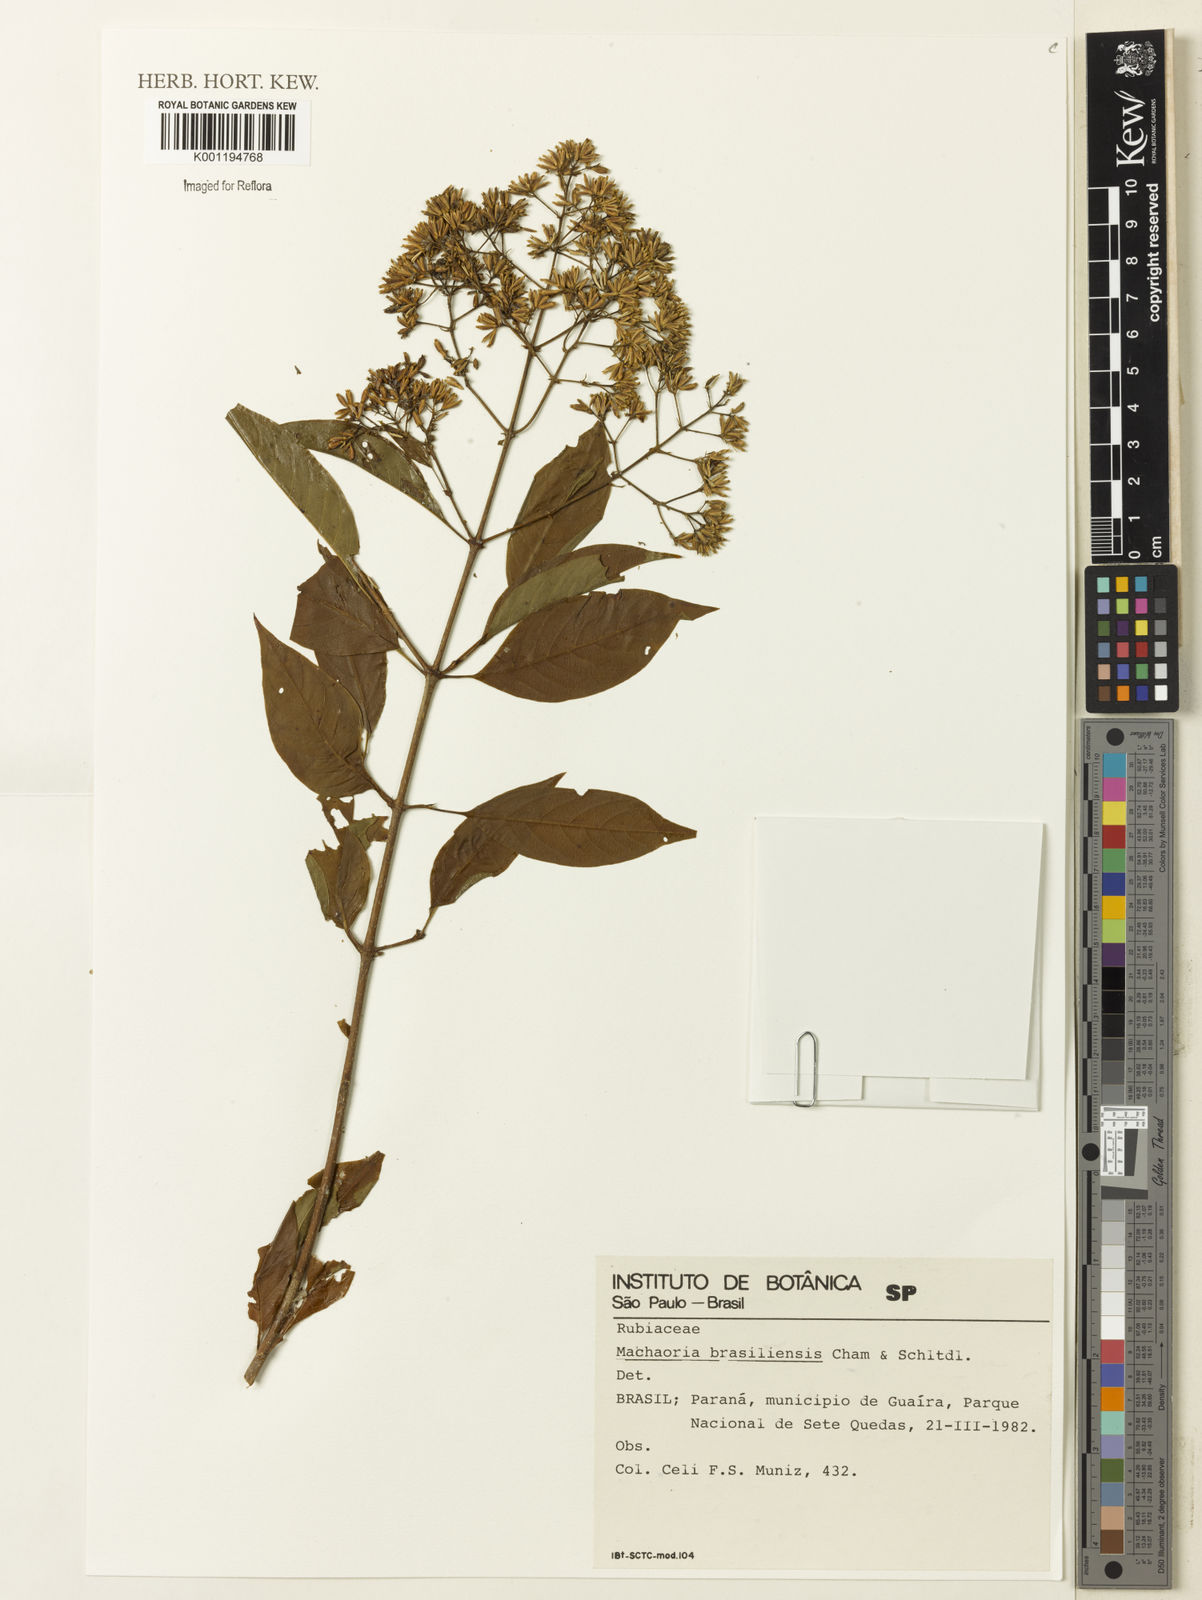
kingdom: Plantae
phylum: Tracheophyta
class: Magnoliopsida
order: Gentianales
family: Rubiaceae
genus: Machaonia
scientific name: Machaonia brasiliensis
